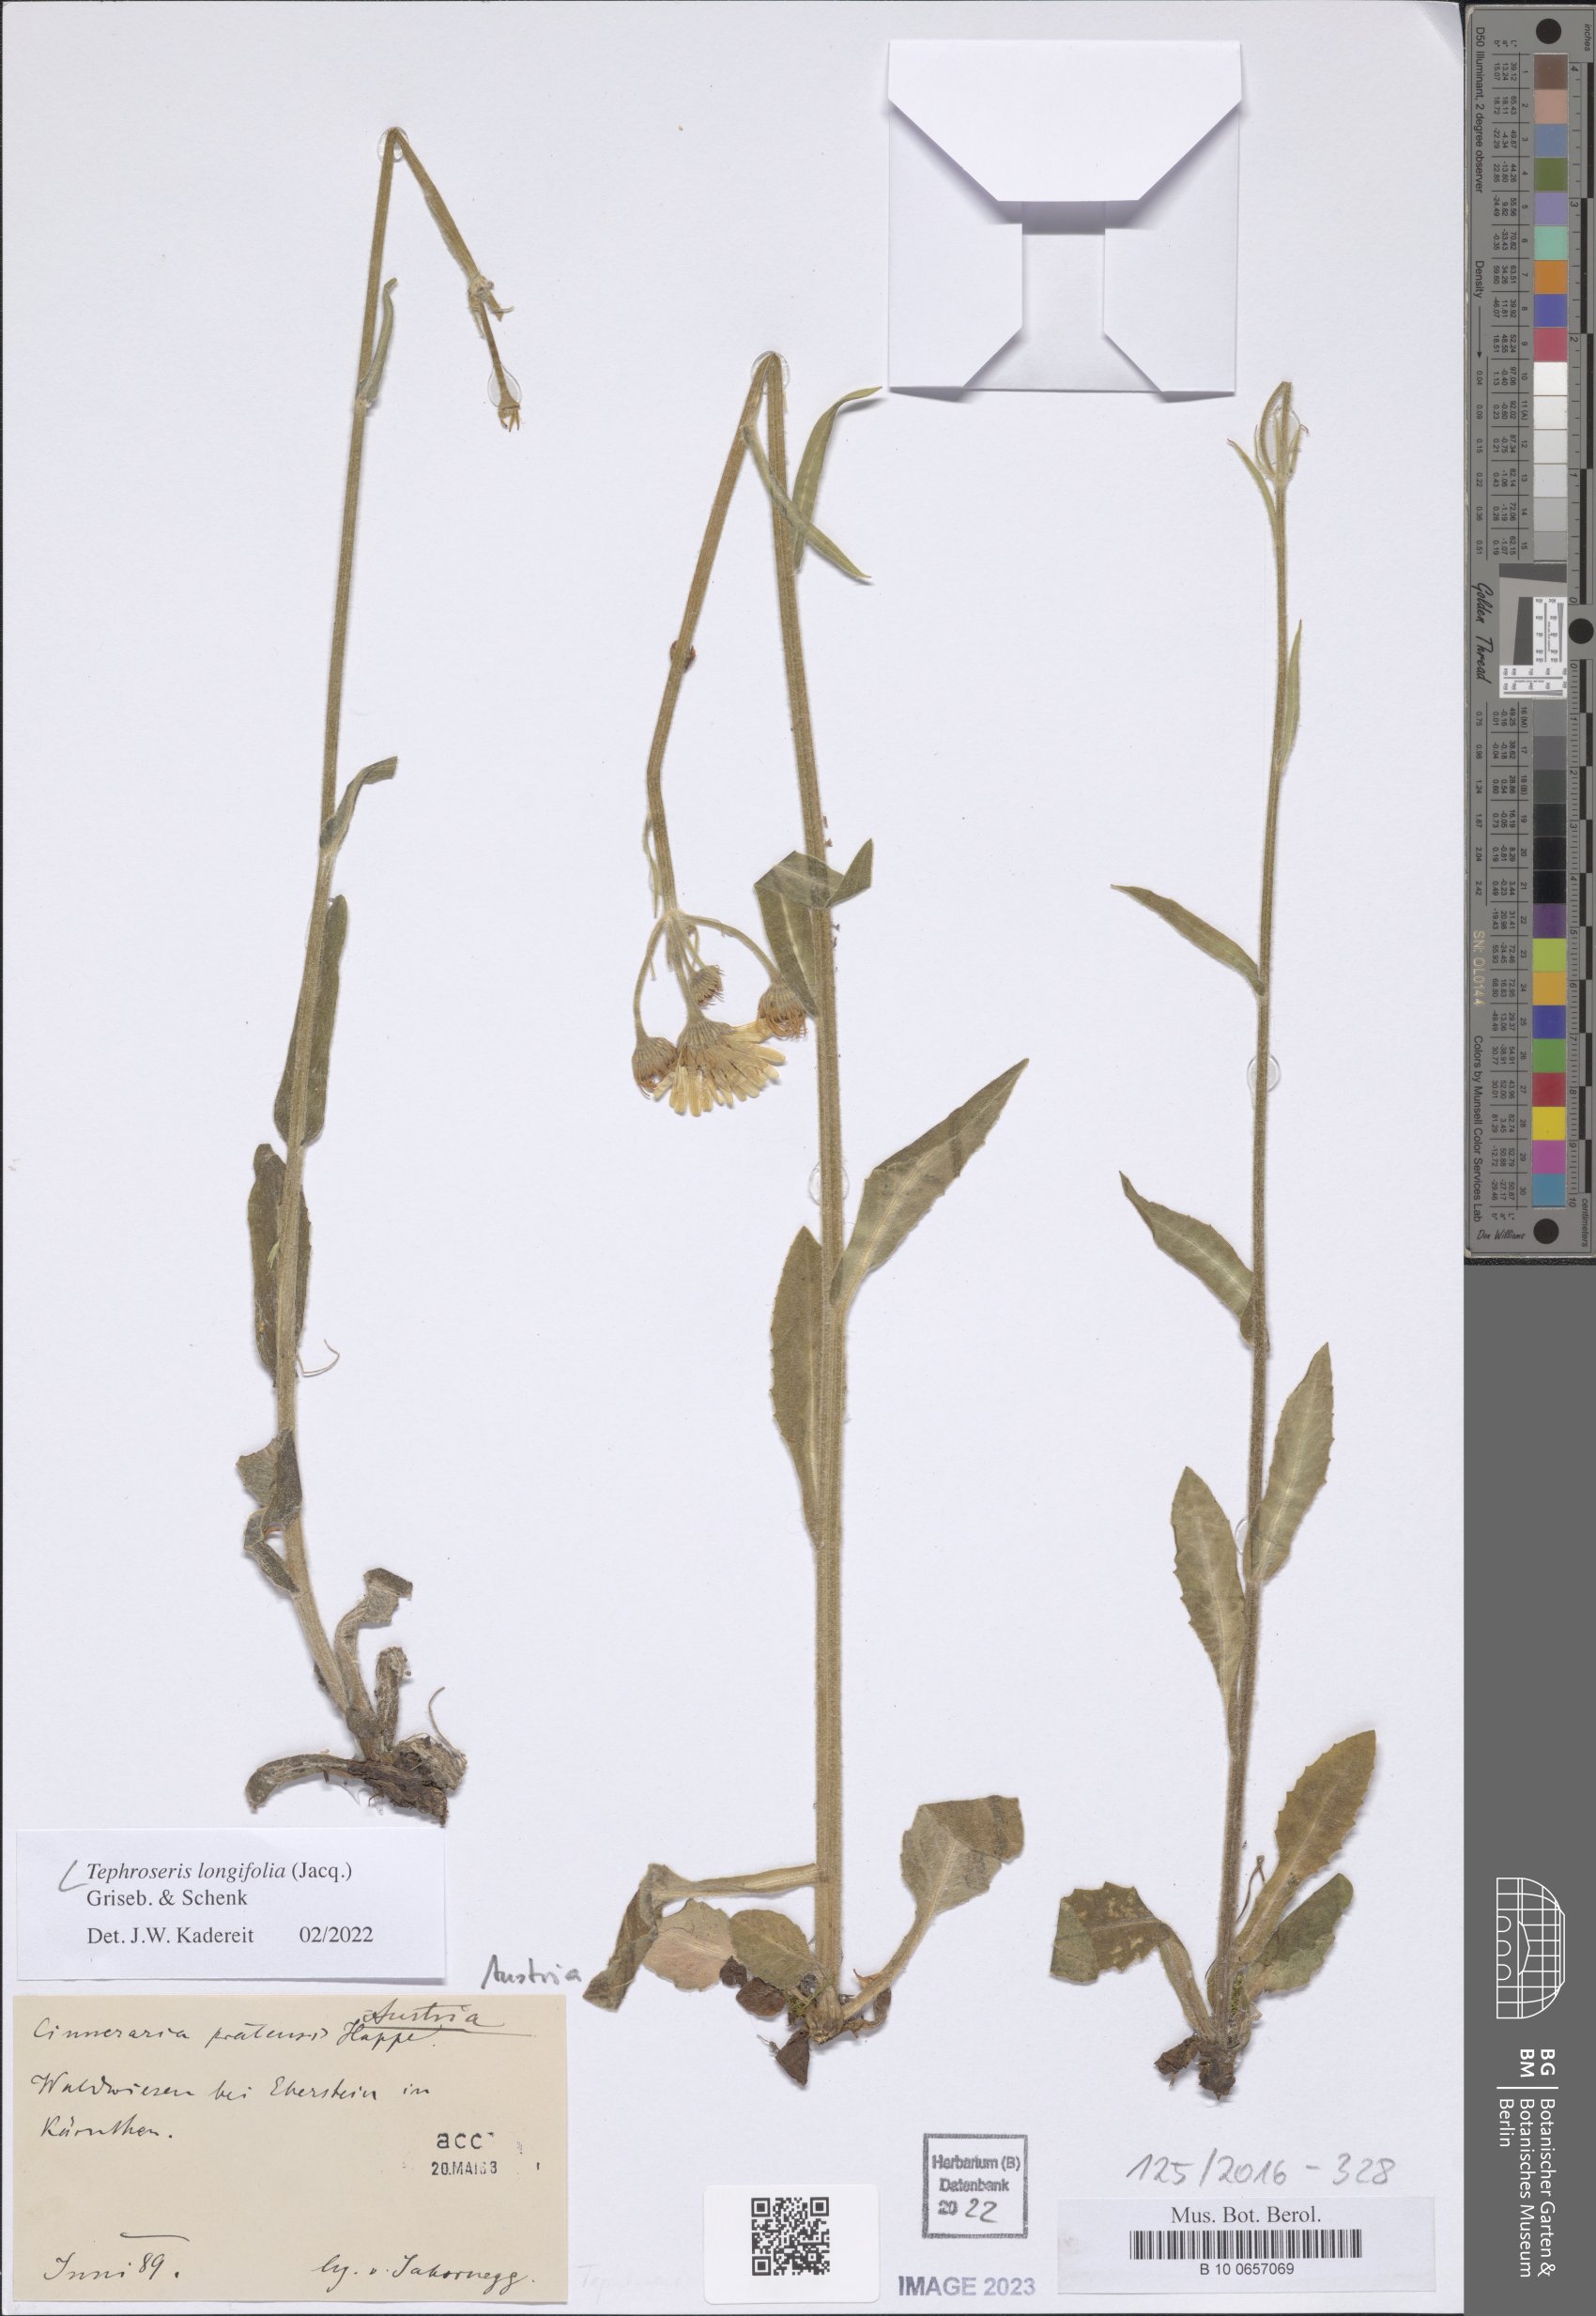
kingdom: Plantae
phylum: Tracheophyta
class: Magnoliopsida
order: Asterales
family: Asteraceae
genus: Tephroseris
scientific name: Tephroseris longifolia
